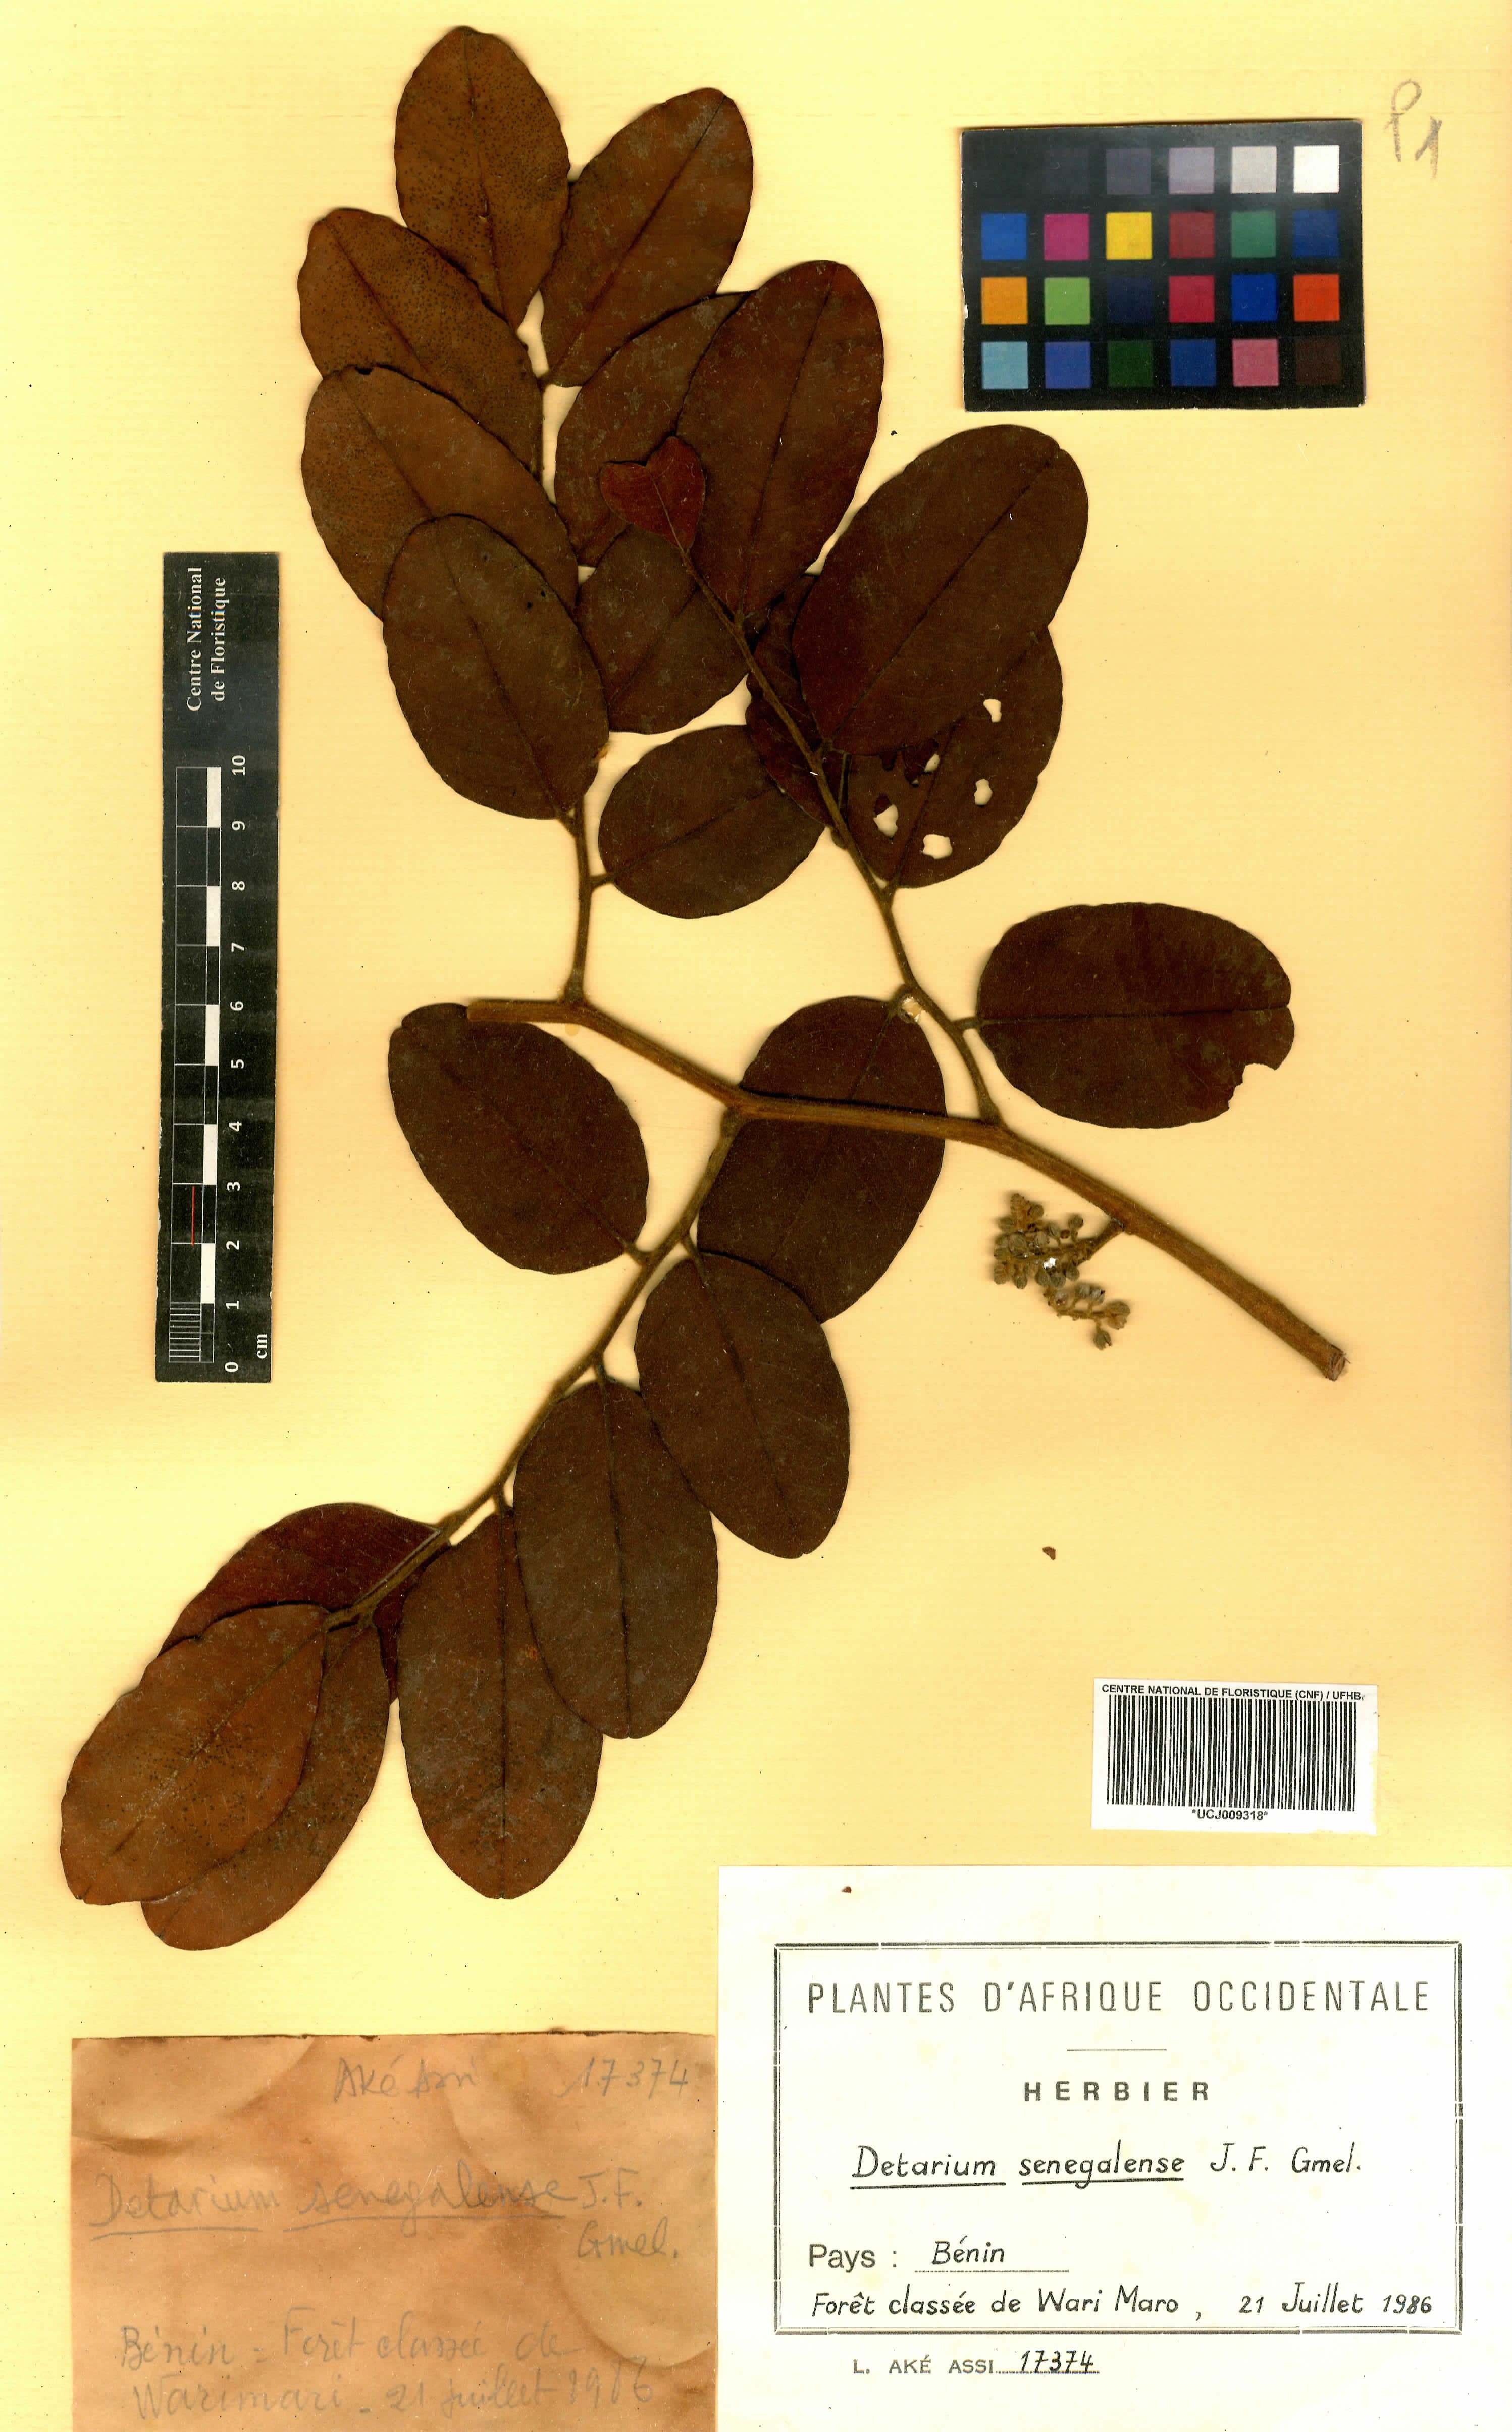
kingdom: Plantae
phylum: Tracheophyta
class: Magnoliopsida
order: Fabales
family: Fabaceae
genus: Detarium
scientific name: Detarium senegalense
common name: Dattocktree
